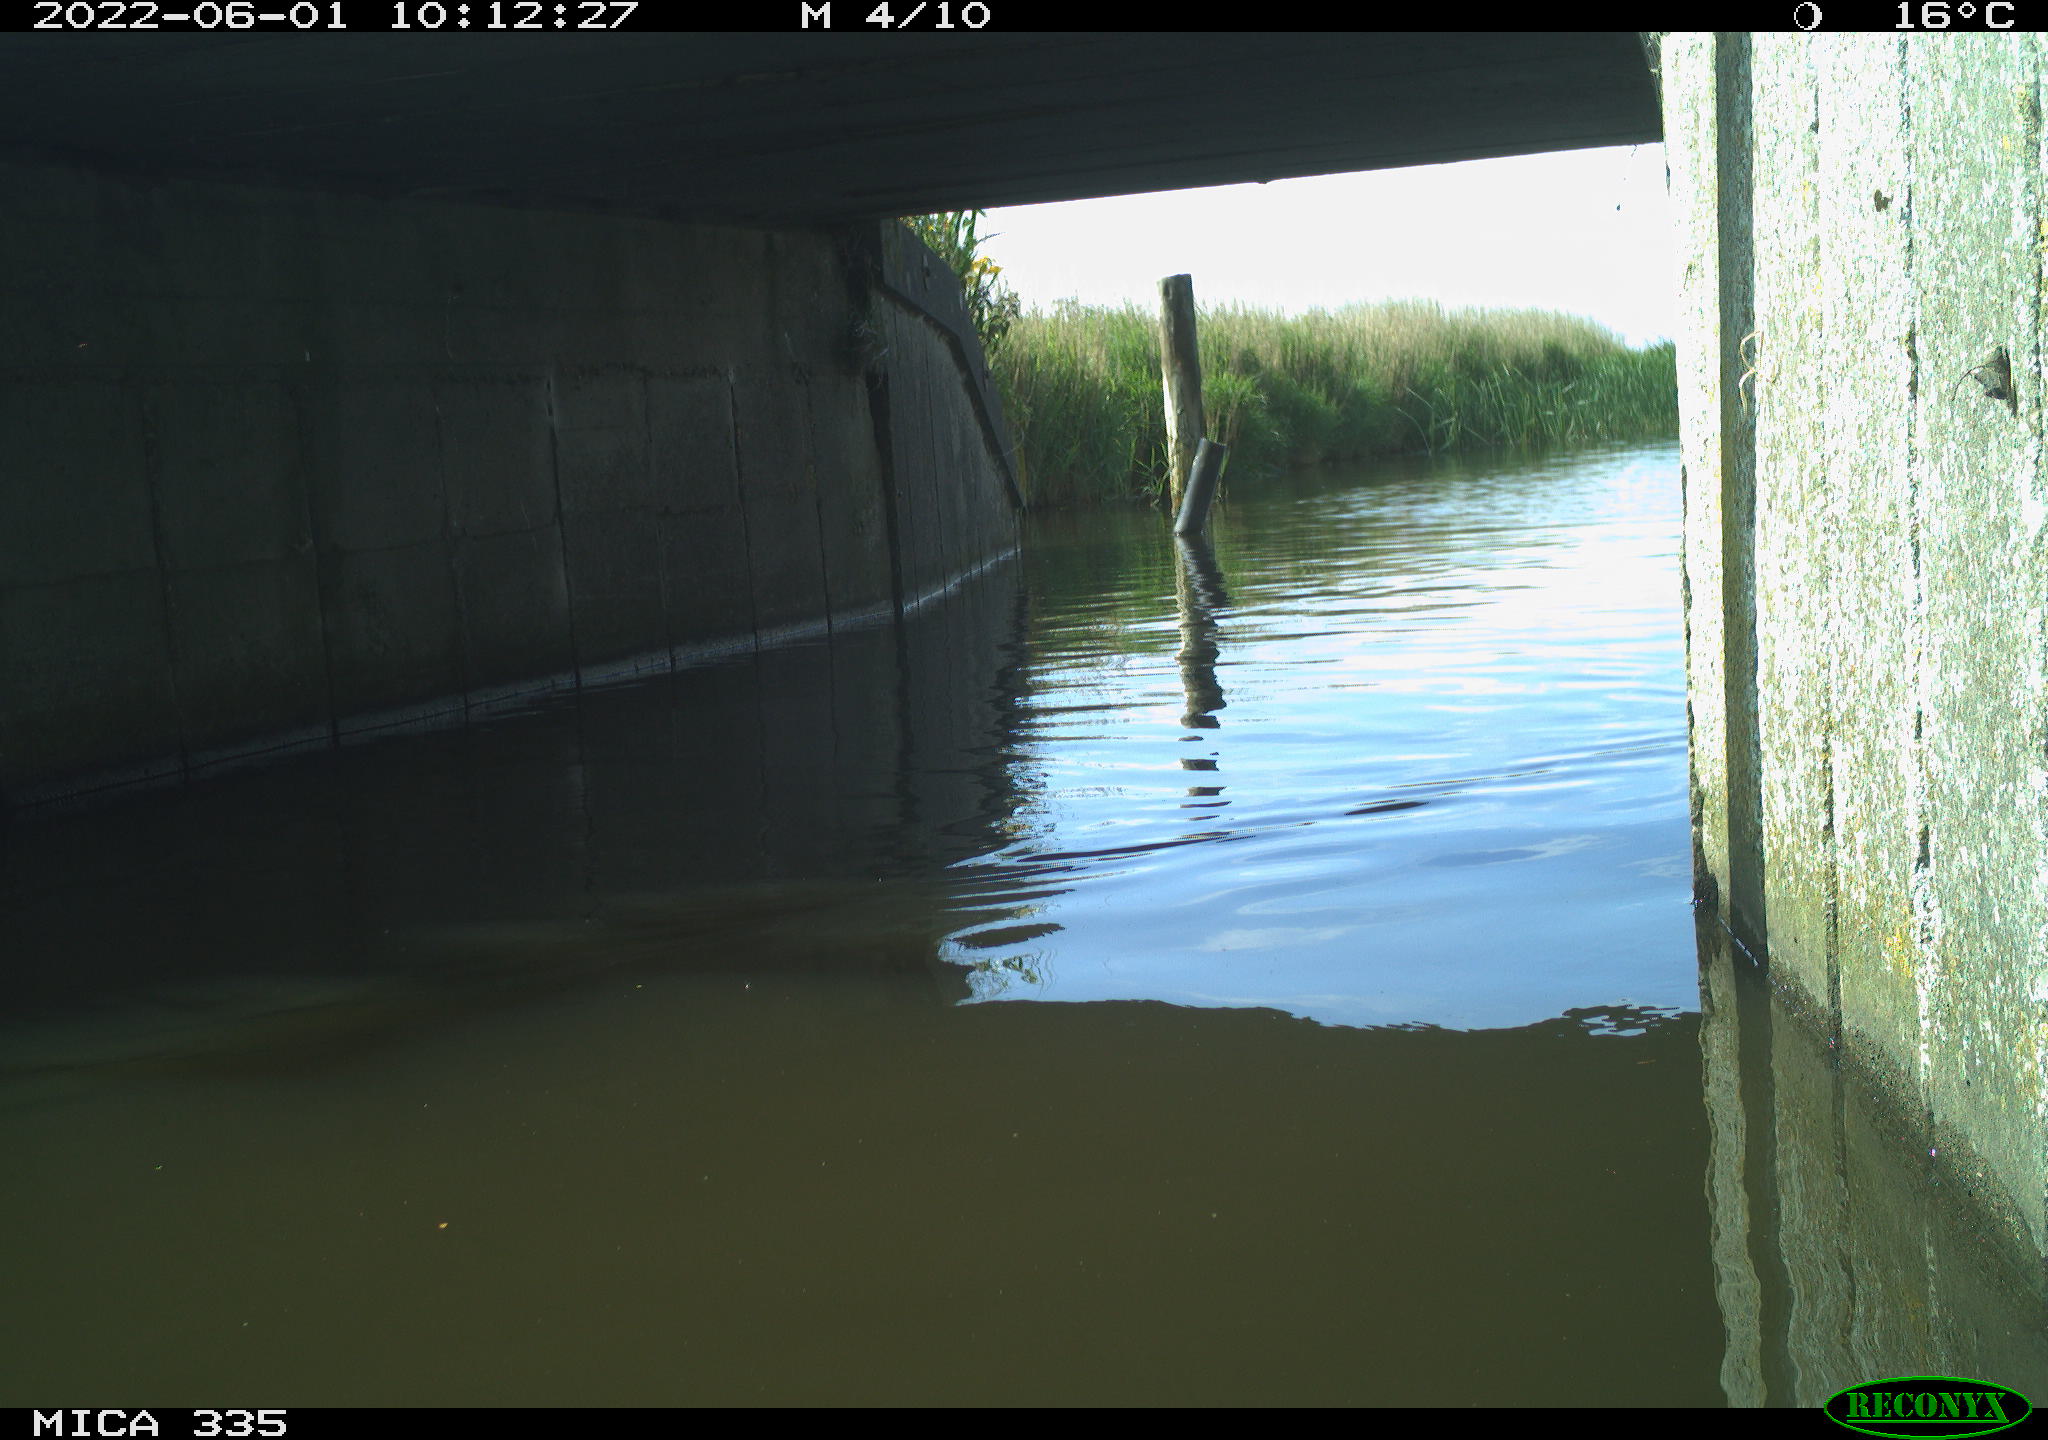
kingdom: Animalia
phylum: Chordata
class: Aves
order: Anseriformes
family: Anatidae
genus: Anas
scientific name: Anas platyrhynchos
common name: Mallard
